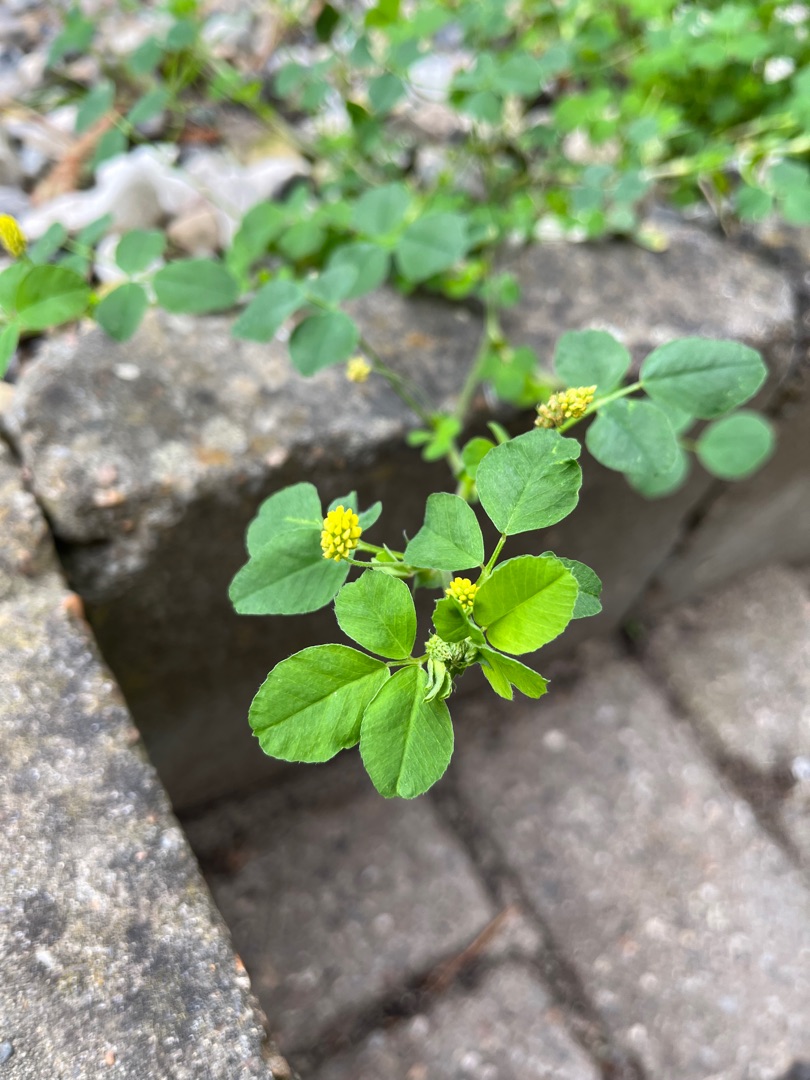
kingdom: Plantae
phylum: Tracheophyta
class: Magnoliopsida
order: Fabales
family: Fabaceae
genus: Medicago
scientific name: Medicago lupulina
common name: Humle-sneglebælg
